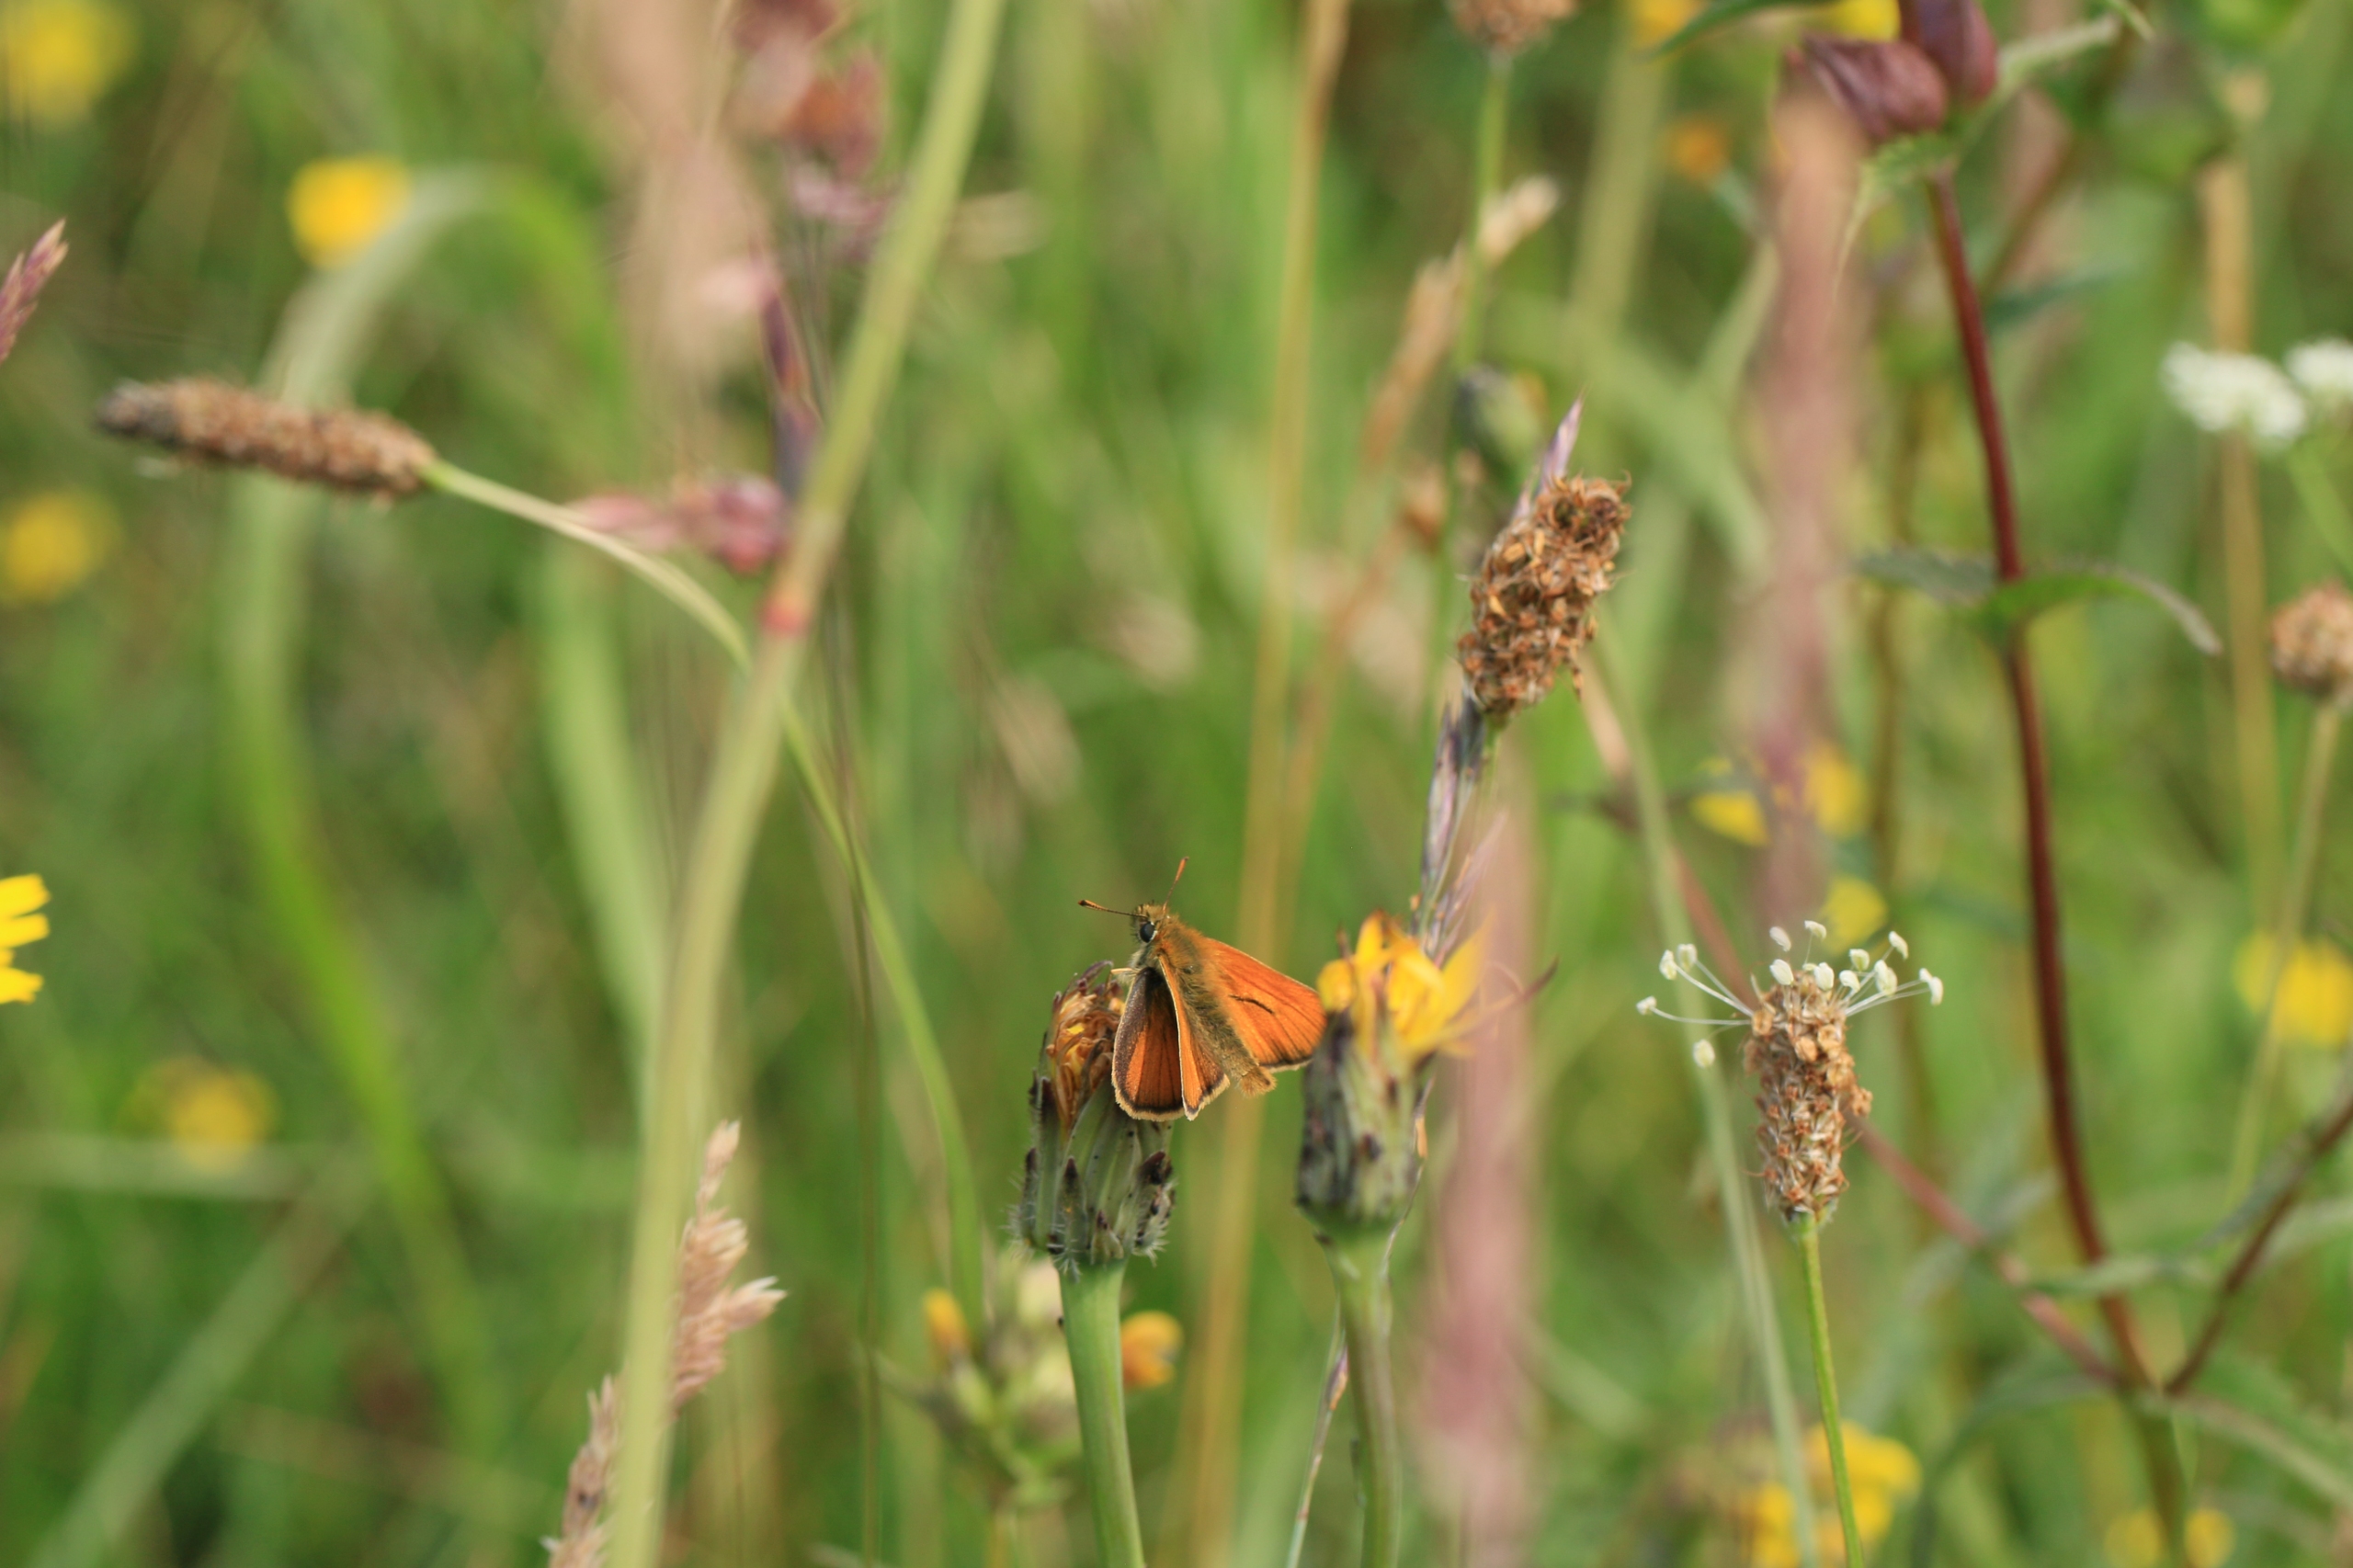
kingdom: Animalia
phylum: Arthropoda
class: Insecta
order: Lepidoptera
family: Hesperiidae
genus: Thymelicus
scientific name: Thymelicus sylvestris
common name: Skråstregbredpande
